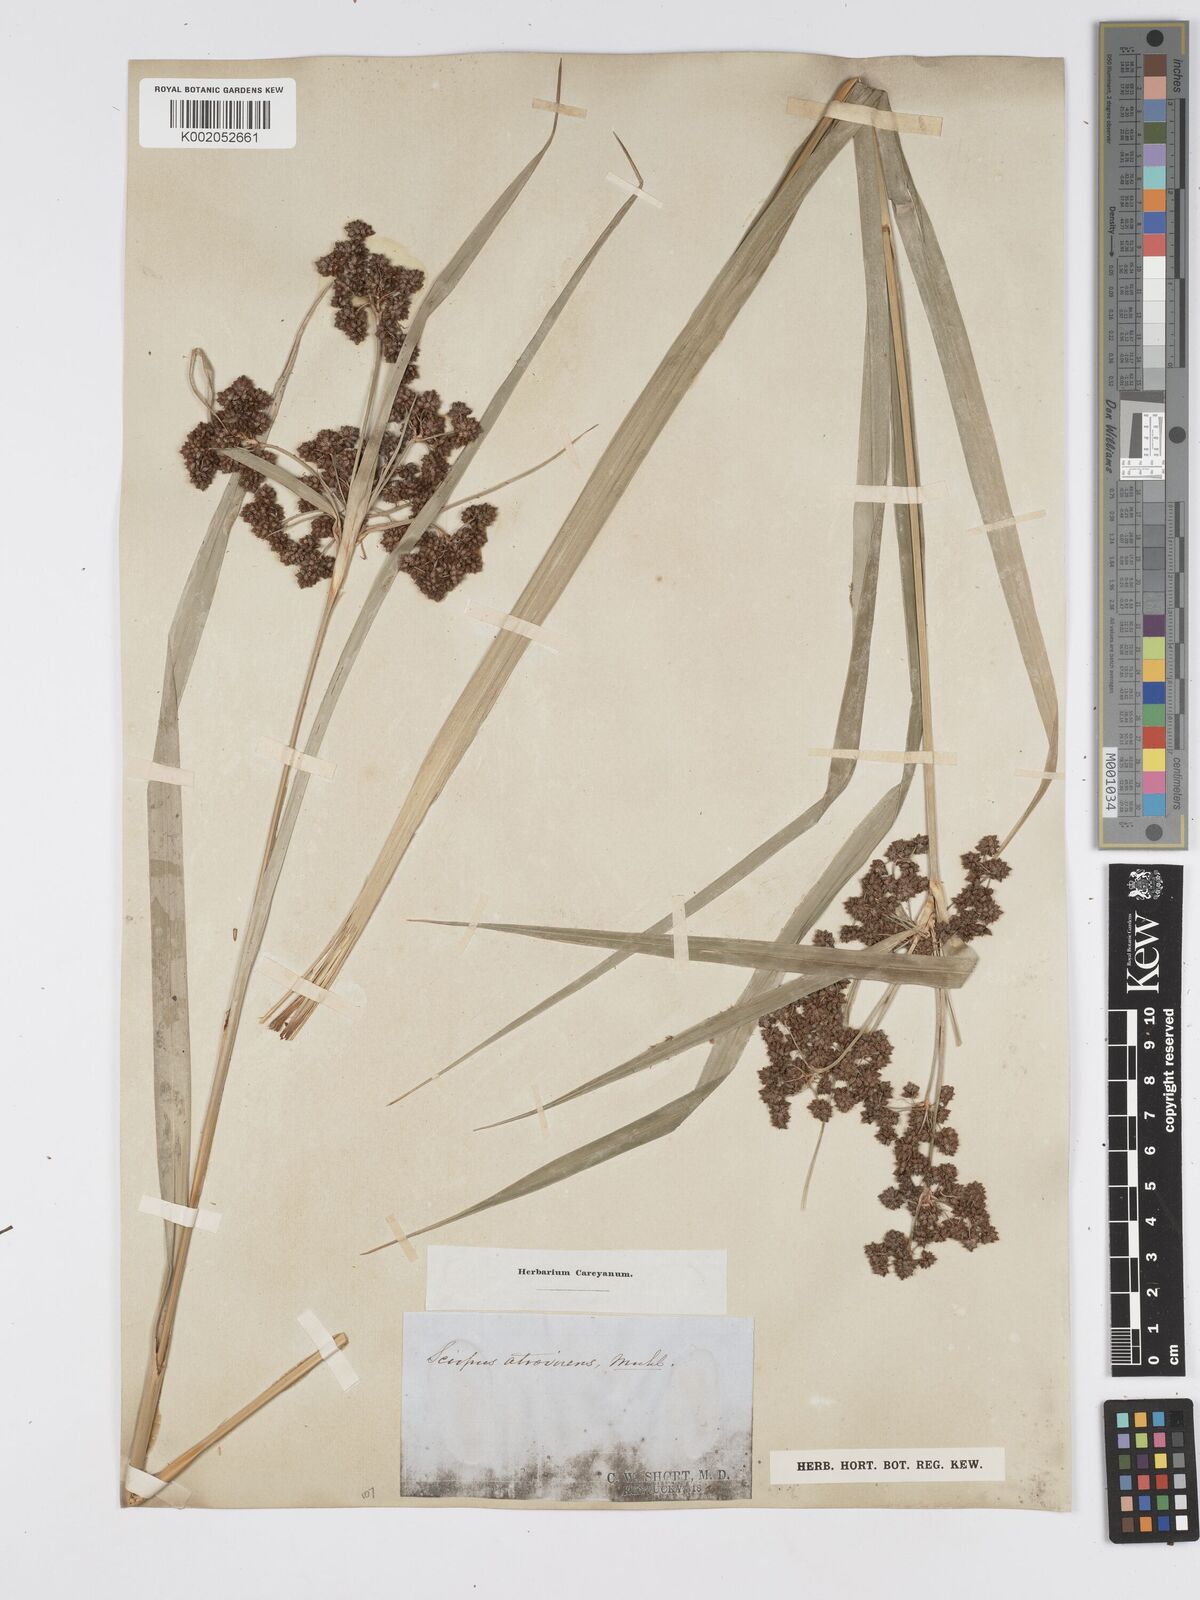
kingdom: Plantae
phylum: Tracheophyta
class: Liliopsida
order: Poales
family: Cyperaceae
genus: Scirpus
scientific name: Scirpus atrovirens
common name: Black bulrush
